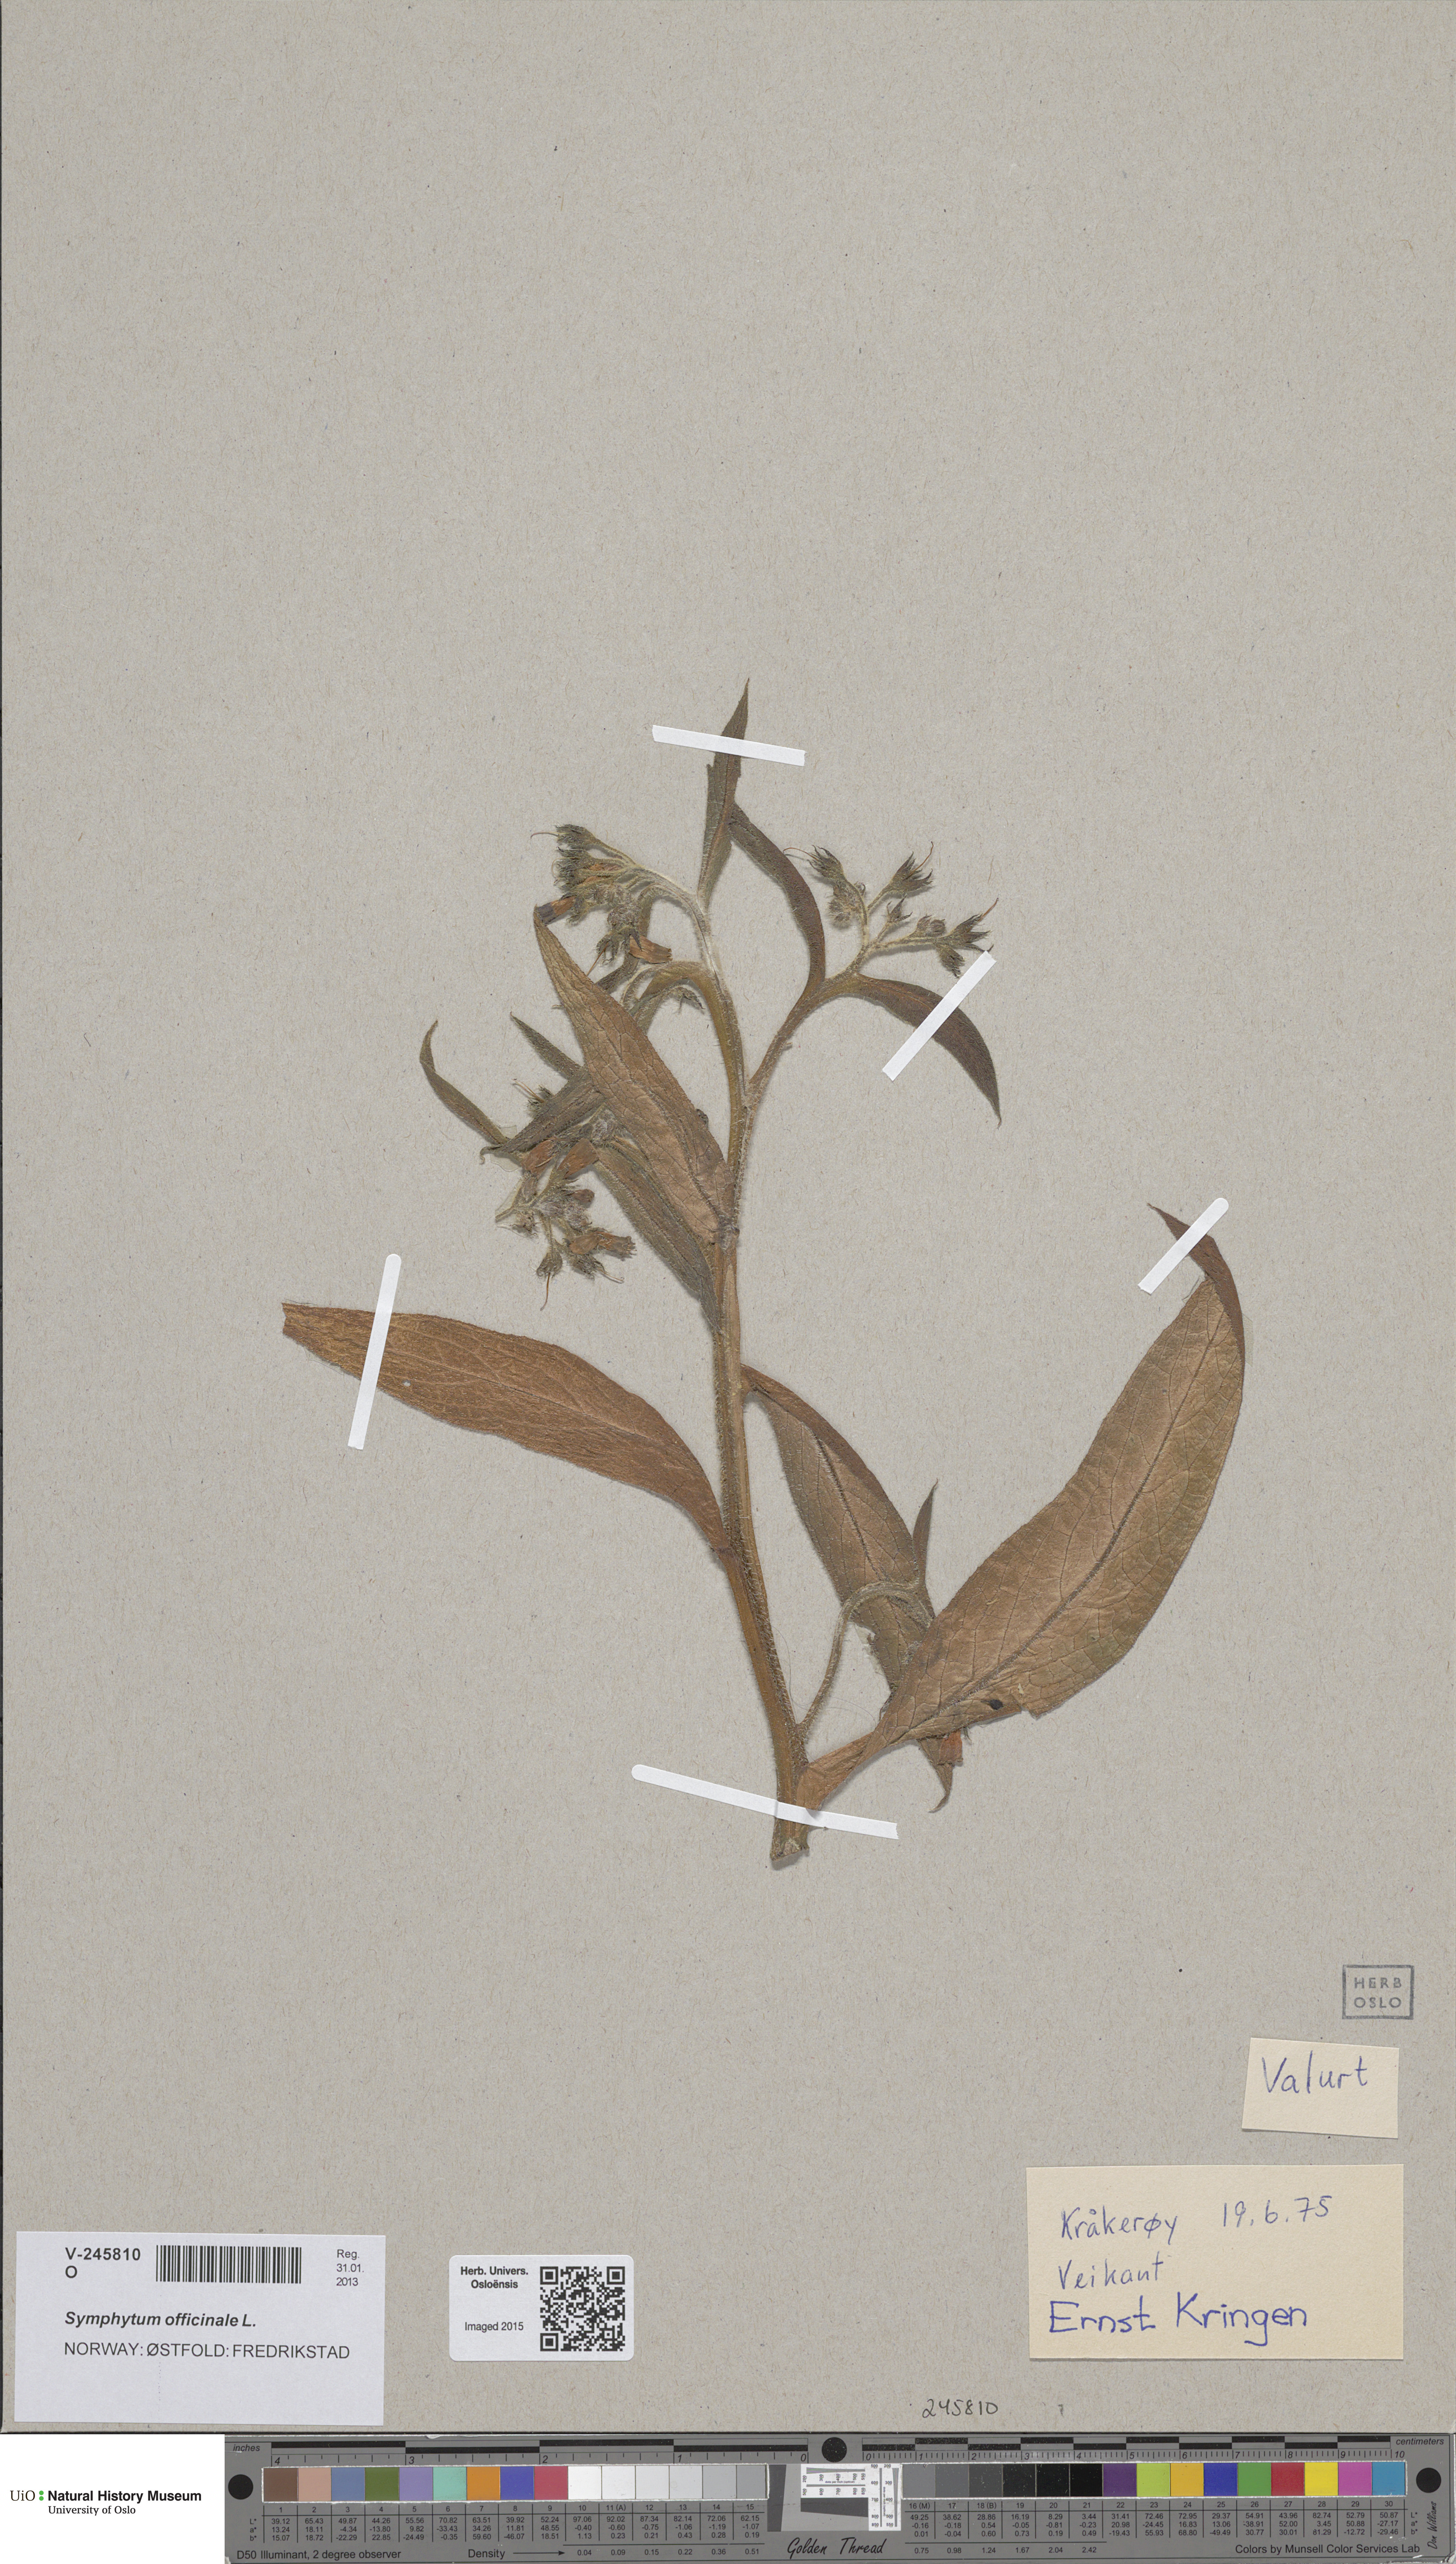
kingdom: Plantae
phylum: Tracheophyta
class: Magnoliopsida
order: Boraginales
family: Boraginaceae
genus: Symphytum
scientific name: Symphytum officinale
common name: Common comfrey
